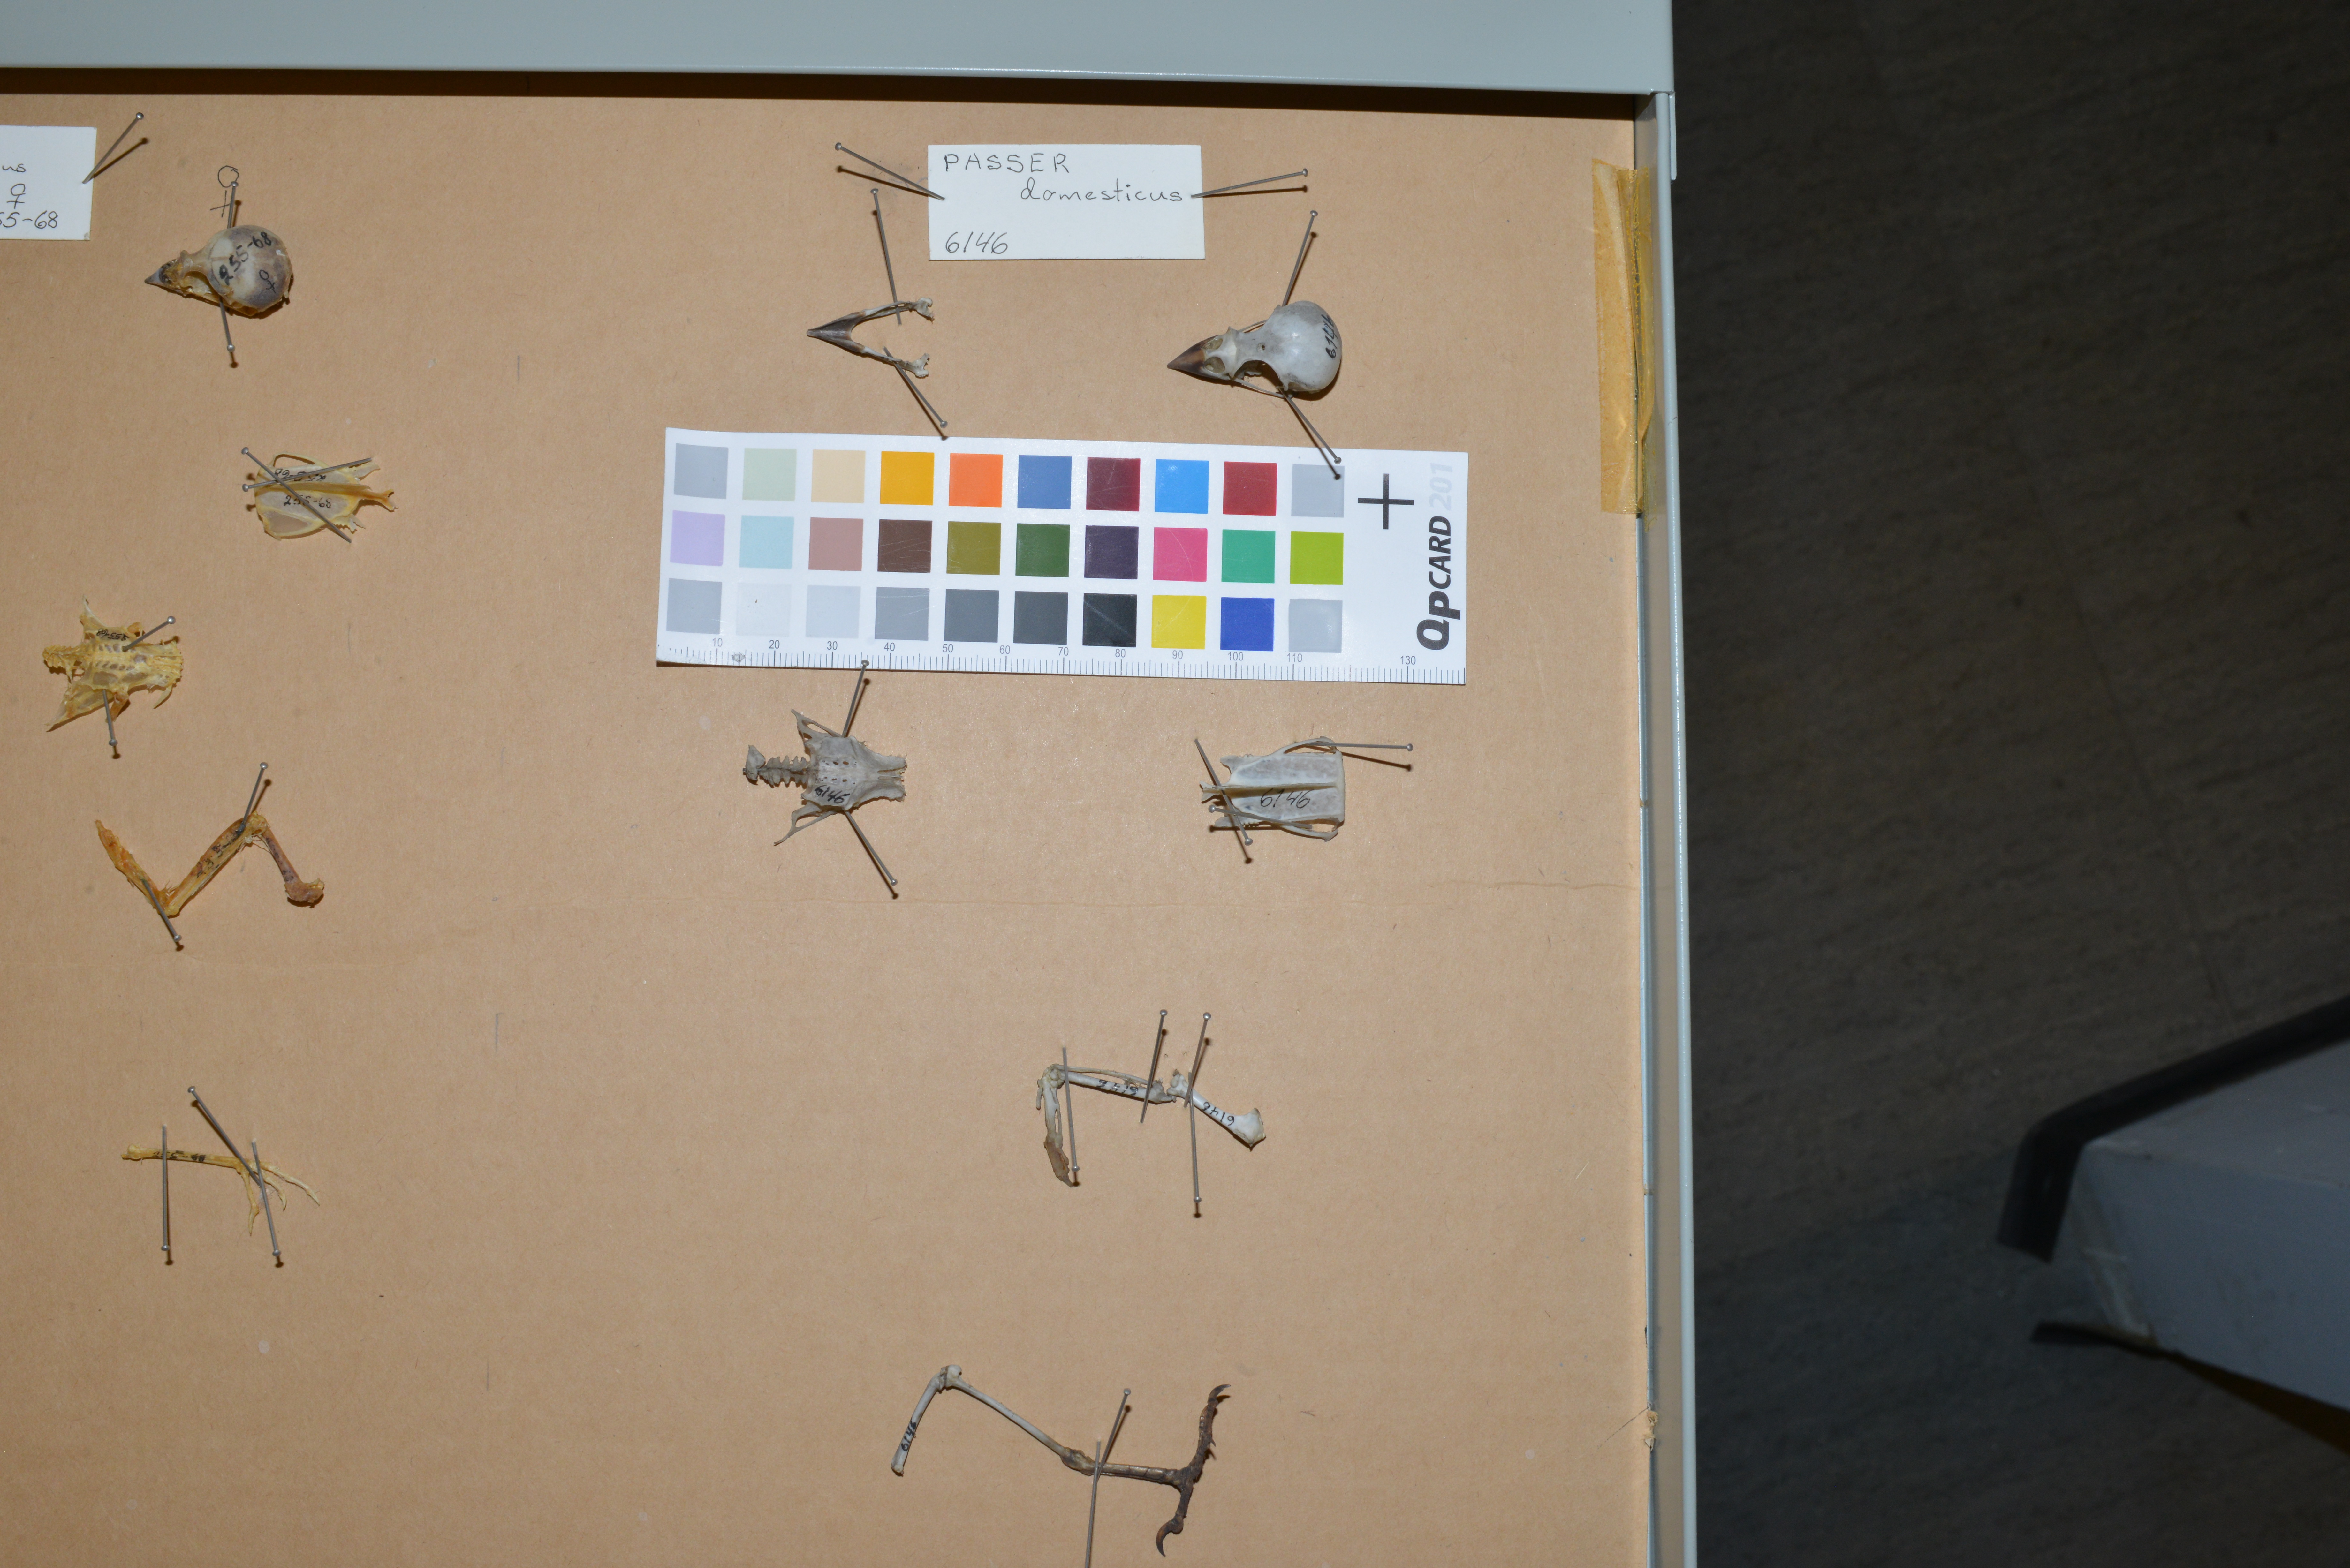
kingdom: Animalia
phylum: Chordata
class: Aves
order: Passeriformes
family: Passeridae
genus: Passer
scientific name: Passer domesticus
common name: House sparrow
